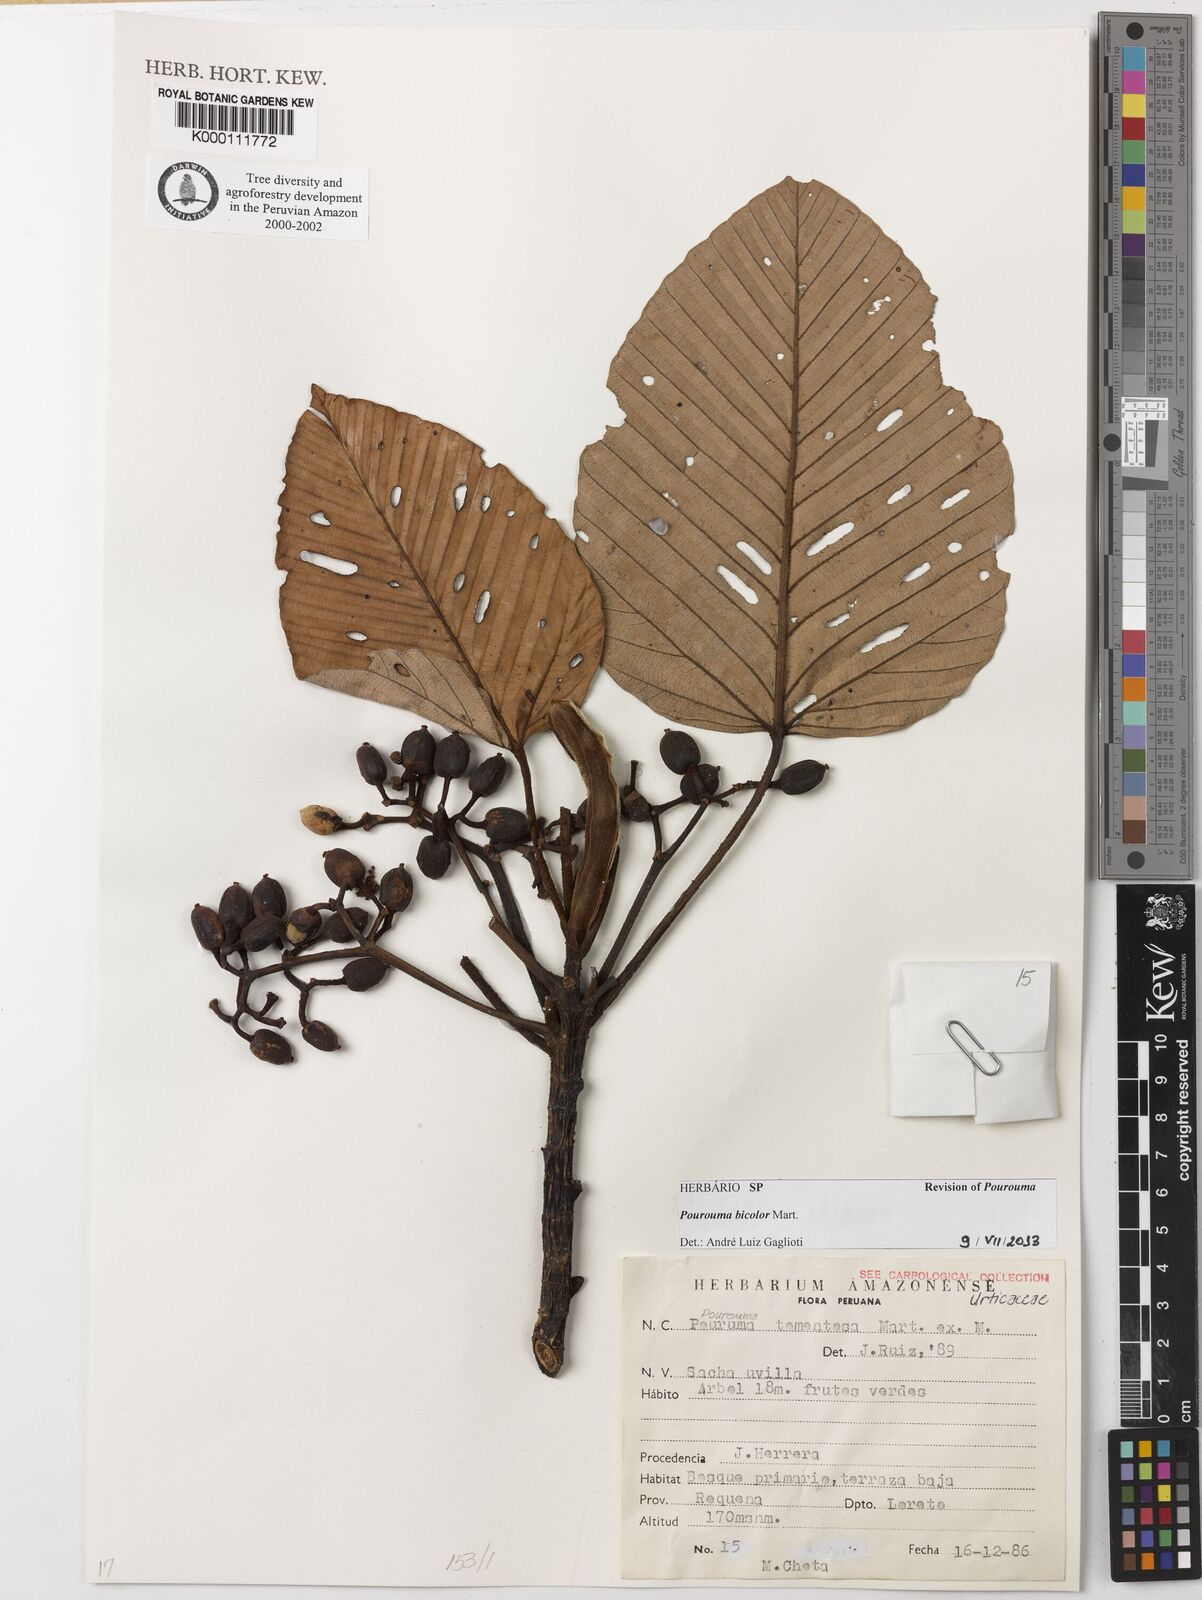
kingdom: Plantae
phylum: Tracheophyta
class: Magnoliopsida
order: Rosales
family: Urticaceae
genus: Pourouma
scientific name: Pourouma bicolor
